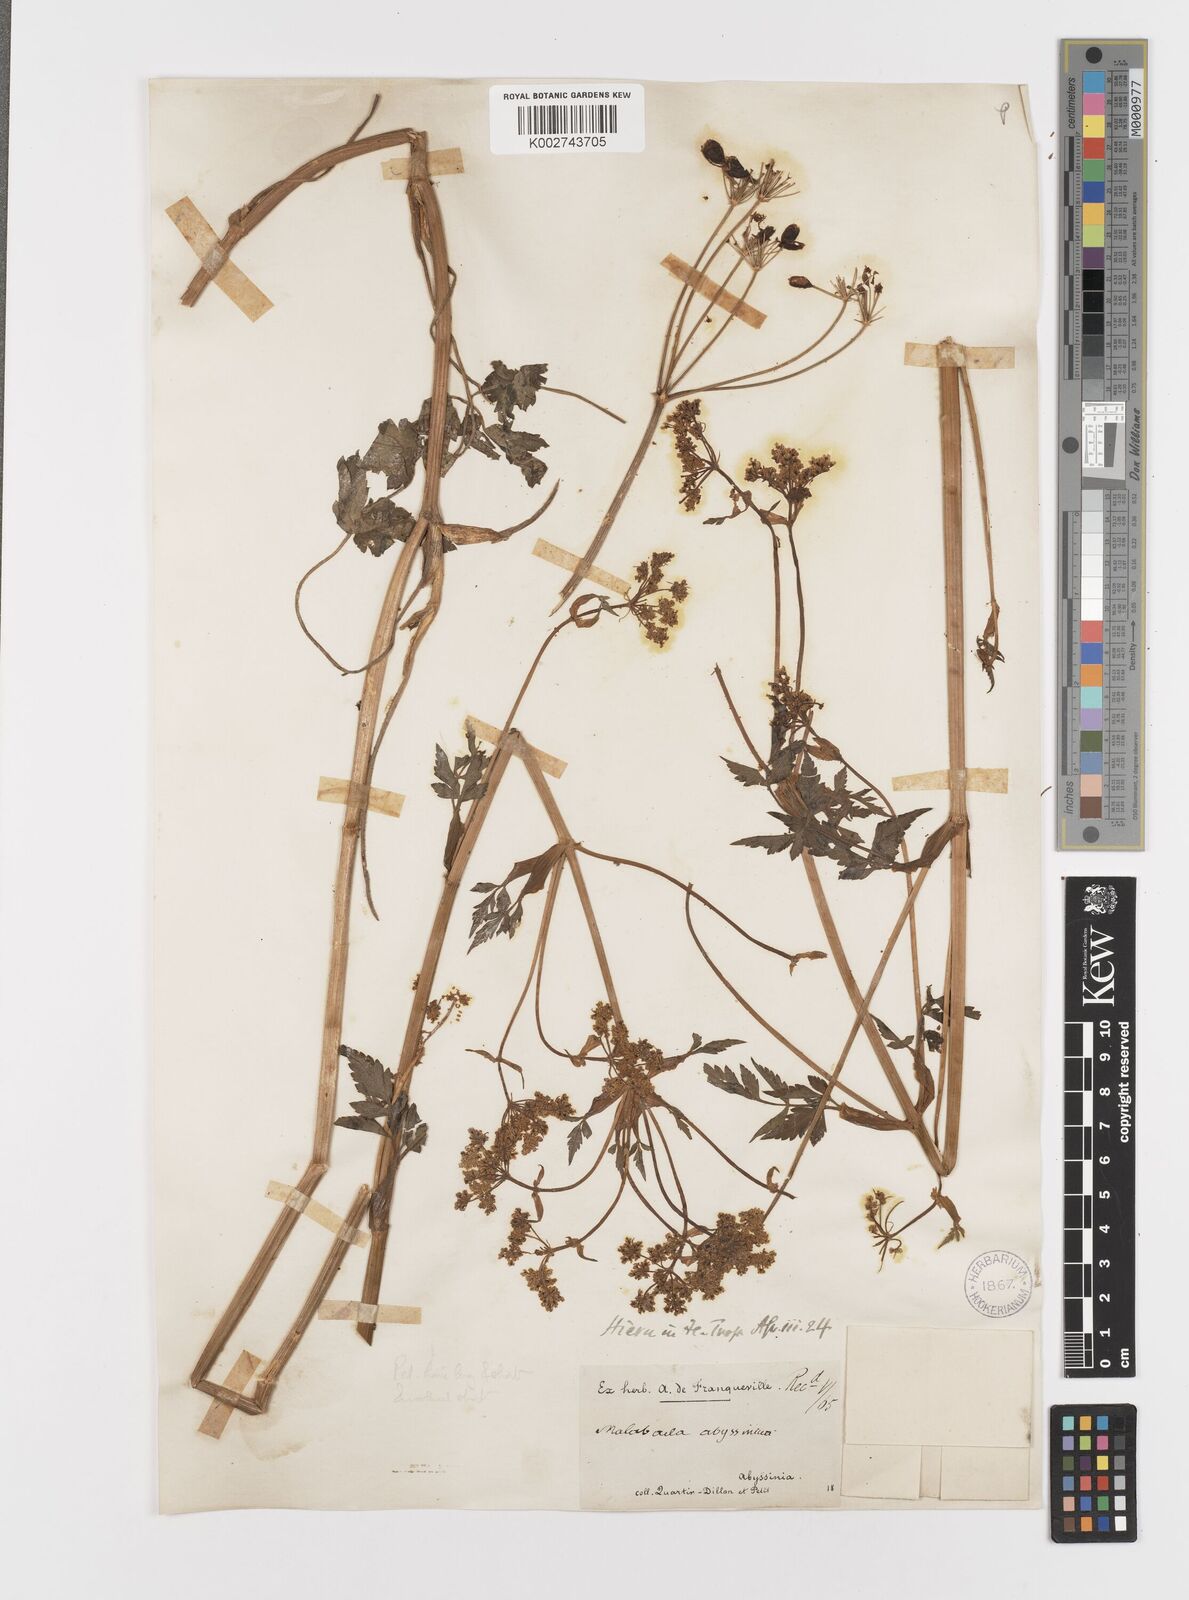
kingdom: Plantae
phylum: Tracheophyta
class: Magnoliopsida
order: Apiales
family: Apiaceae
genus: Heracleum
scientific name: Heracleum abyssinicum
